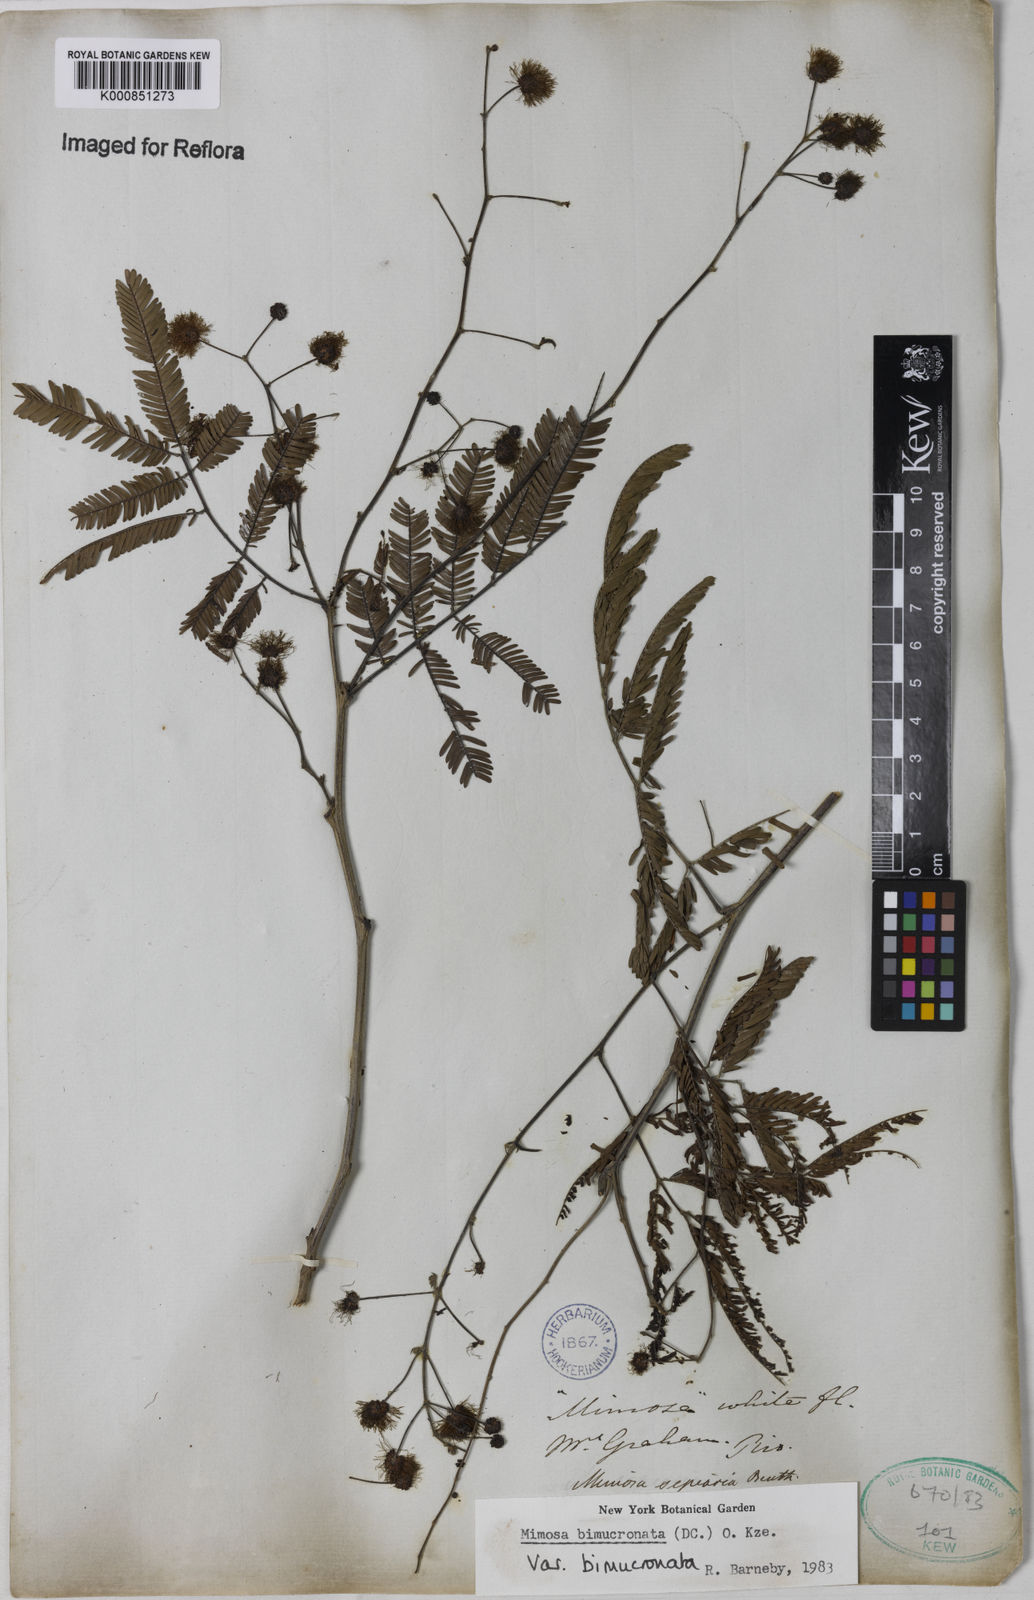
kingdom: Plantae
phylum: Tracheophyta
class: Magnoliopsida
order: Fabales
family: Fabaceae
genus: Mimosa
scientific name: Mimosa bimucronata
